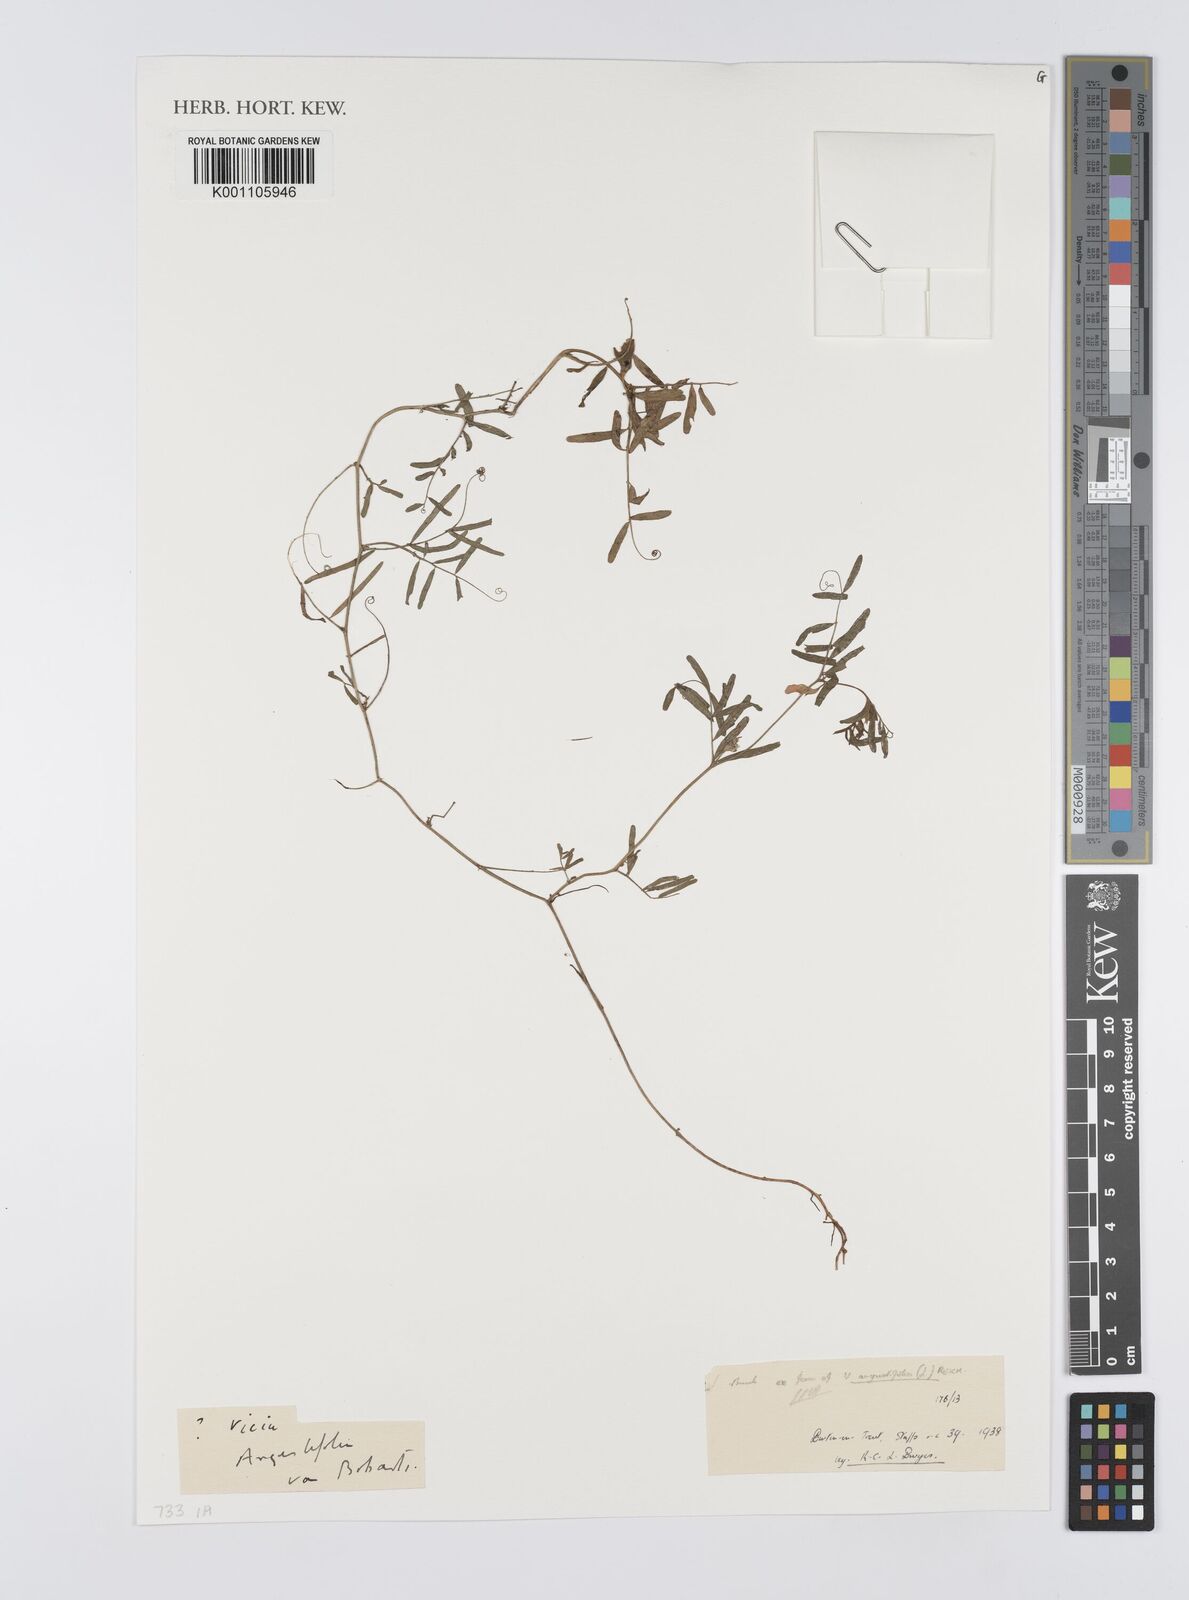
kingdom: Plantae
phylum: Tracheophyta
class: Magnoliopsida
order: Fabales
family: Fabaceae
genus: Vicia
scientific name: Vicia sativa
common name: Garden vetch
